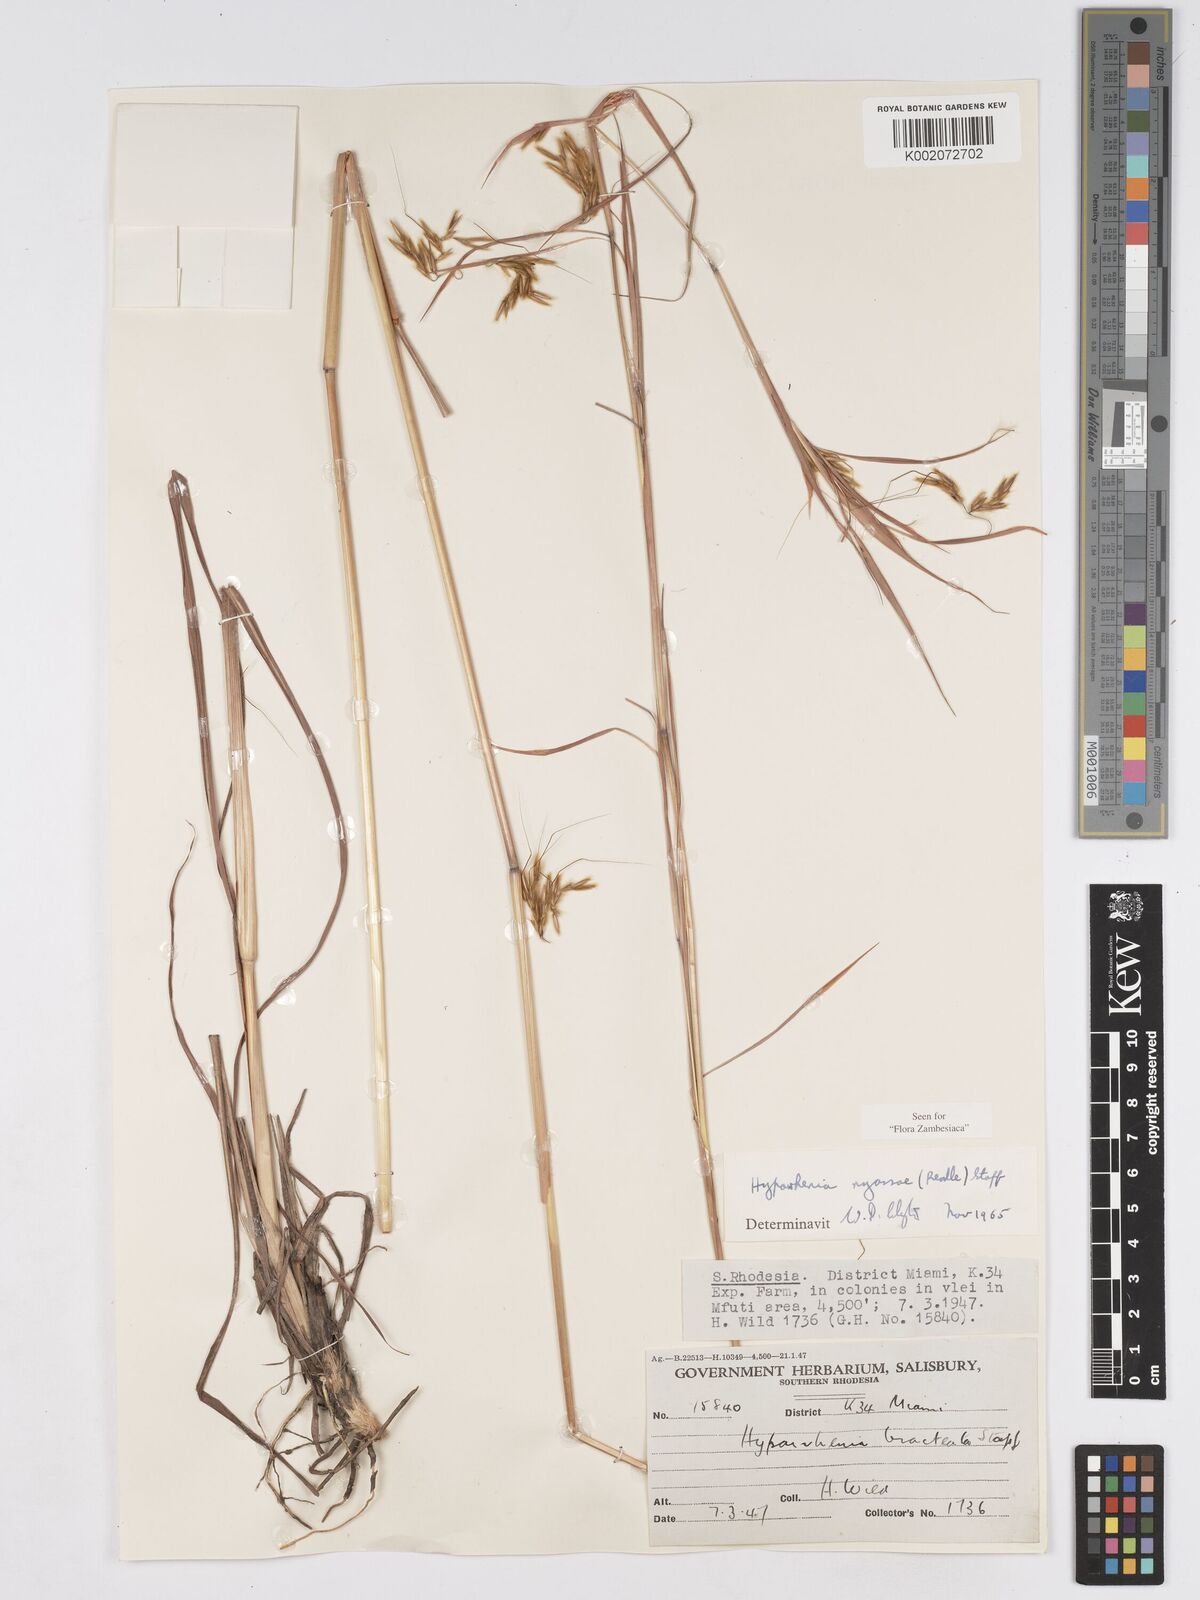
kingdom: Plantae
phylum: Tracheophyta
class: Liliopsida
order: Poales
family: Poaceae
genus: Hyparrhenia
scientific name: Hyparrhenia nyassae
